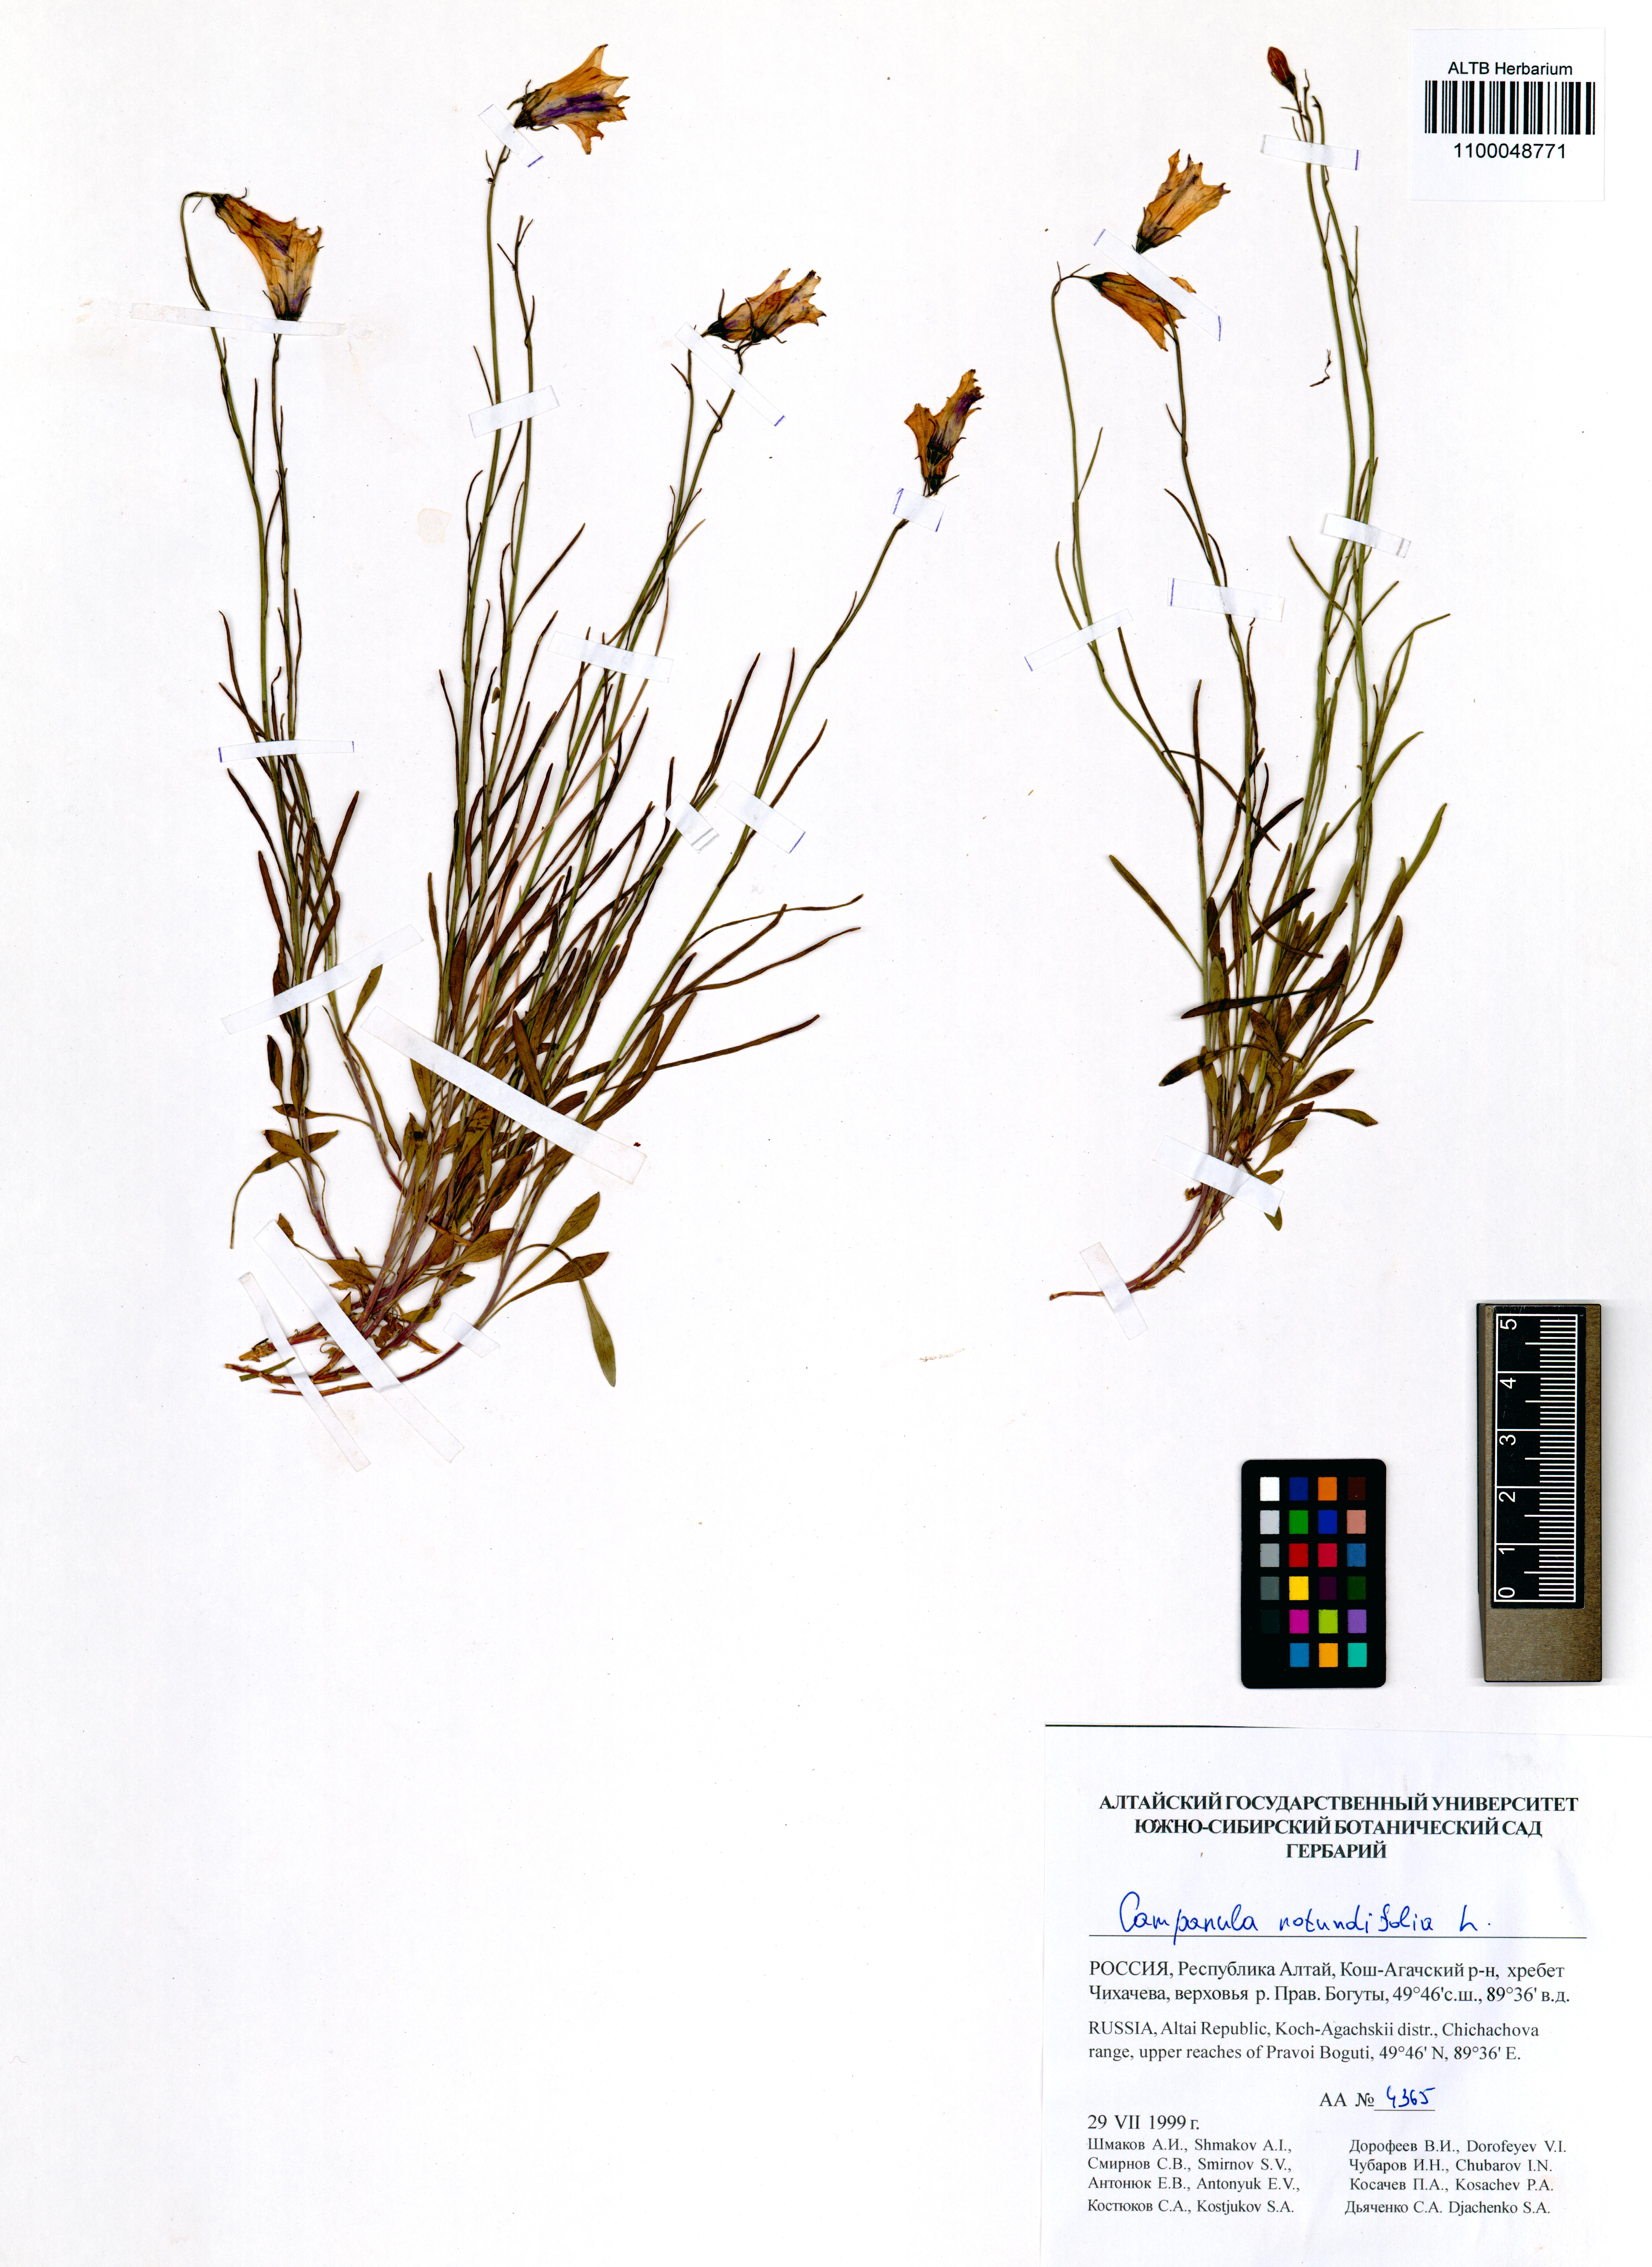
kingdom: Plantae
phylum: Tracheophyta
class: Magnoliopsida
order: Asterales
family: Campanulaceae
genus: Campanula
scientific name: Campanula rotundifolia
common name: Harebell
